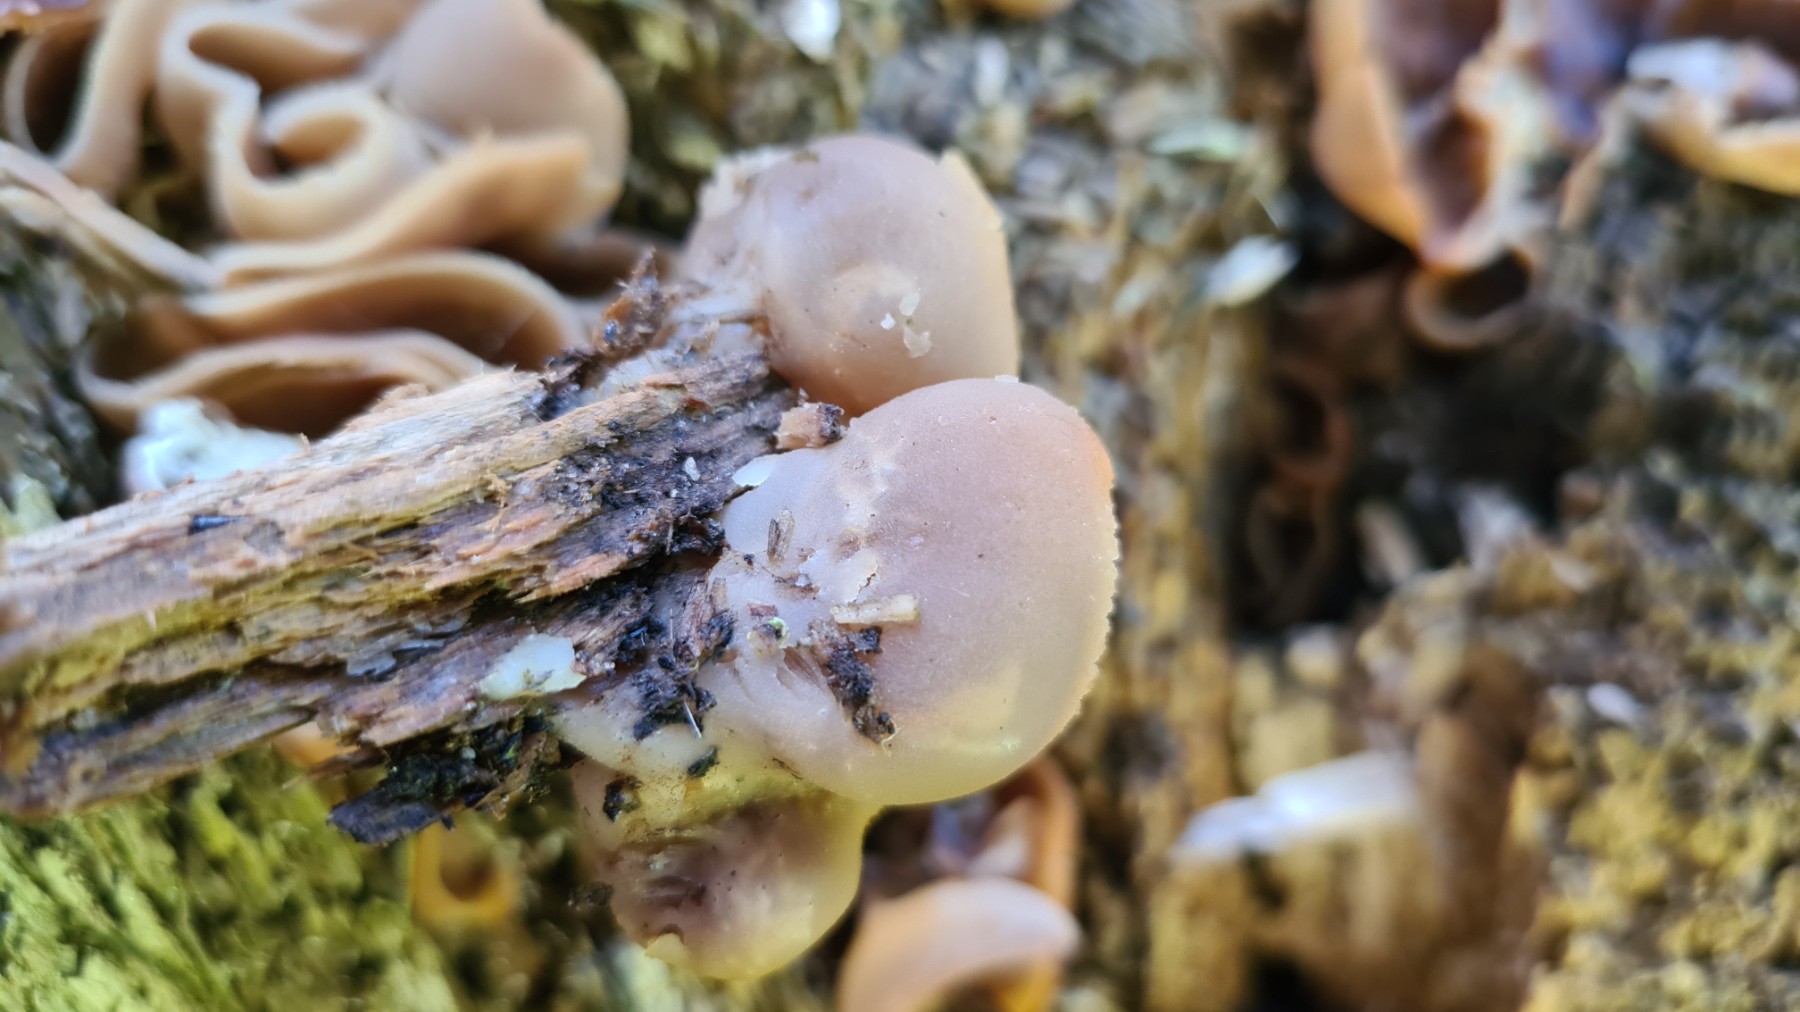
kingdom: Fungi
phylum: Ascomycota
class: Pezizomycetes
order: Pezizales
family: Pezizaceae
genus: Peziza
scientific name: Peziza varia
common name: Ved-bægersvamp
